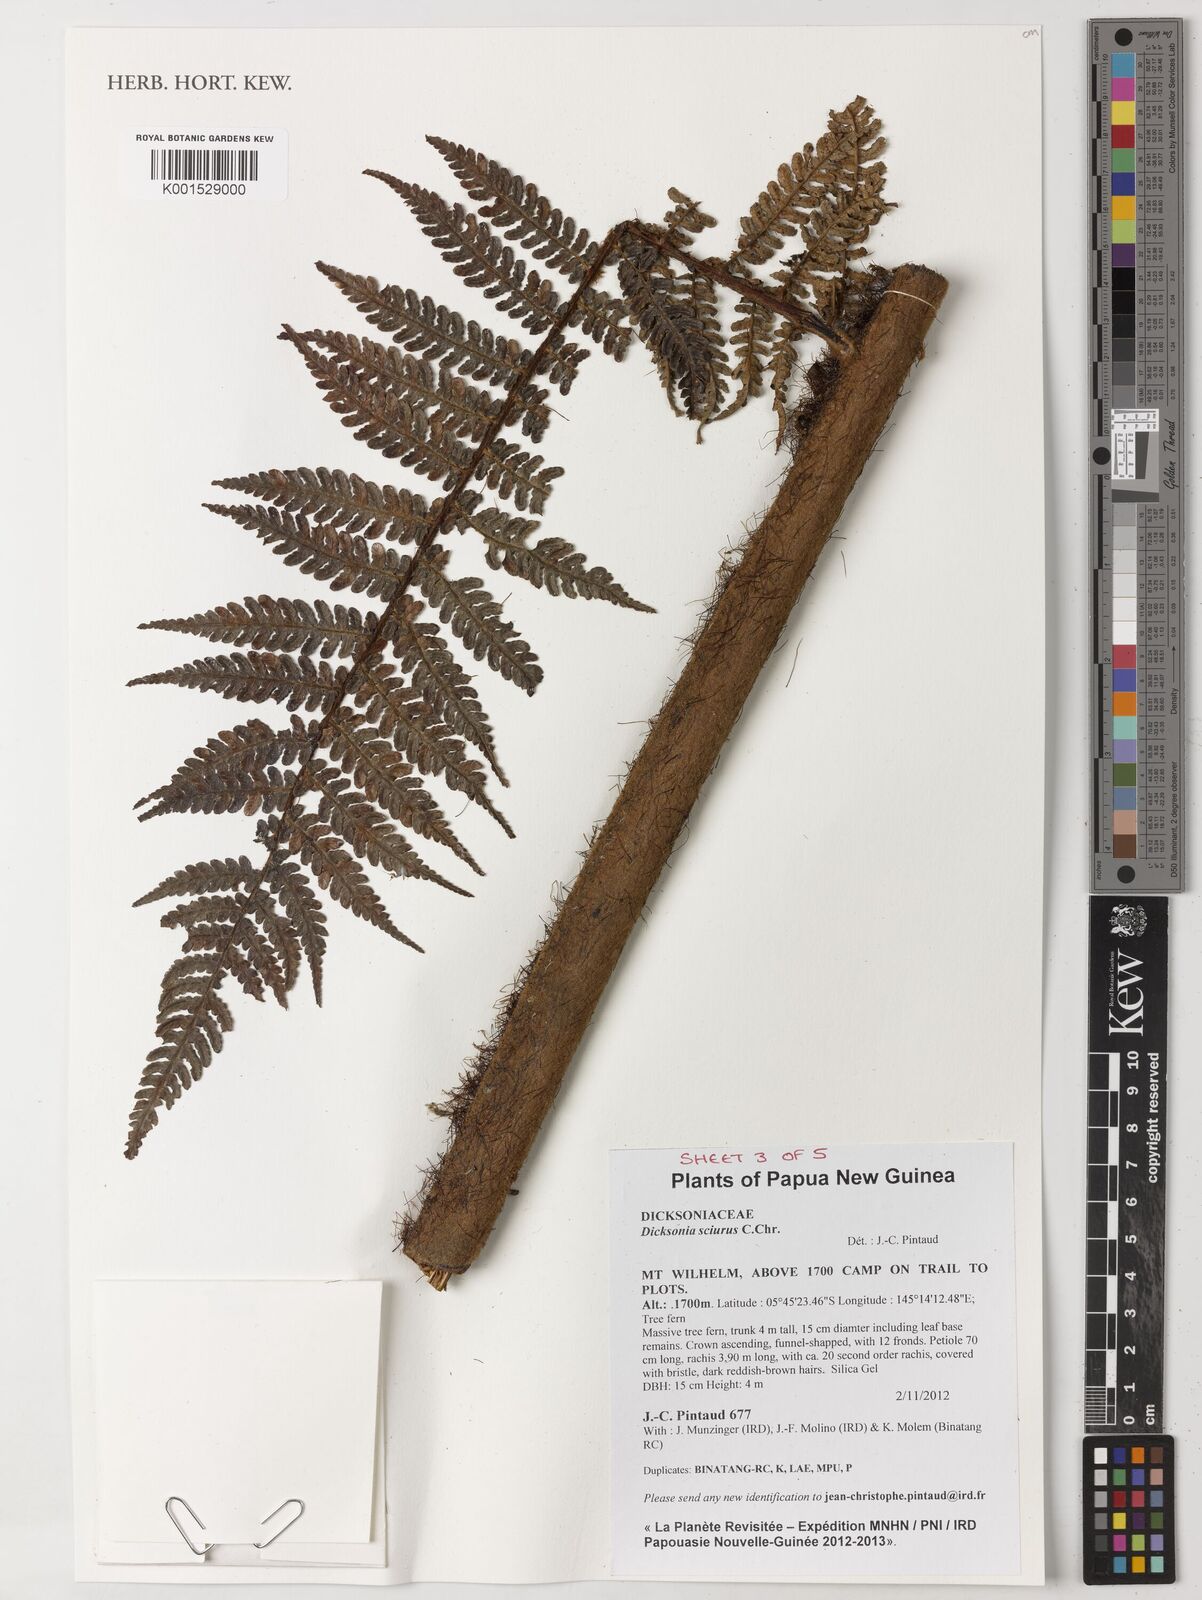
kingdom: Plantae
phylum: Tracheophyta
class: Polypodiopsida
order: Cyatheales
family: Dicksoniaceae
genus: Dicksonia
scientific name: Dicksonia sciurus
